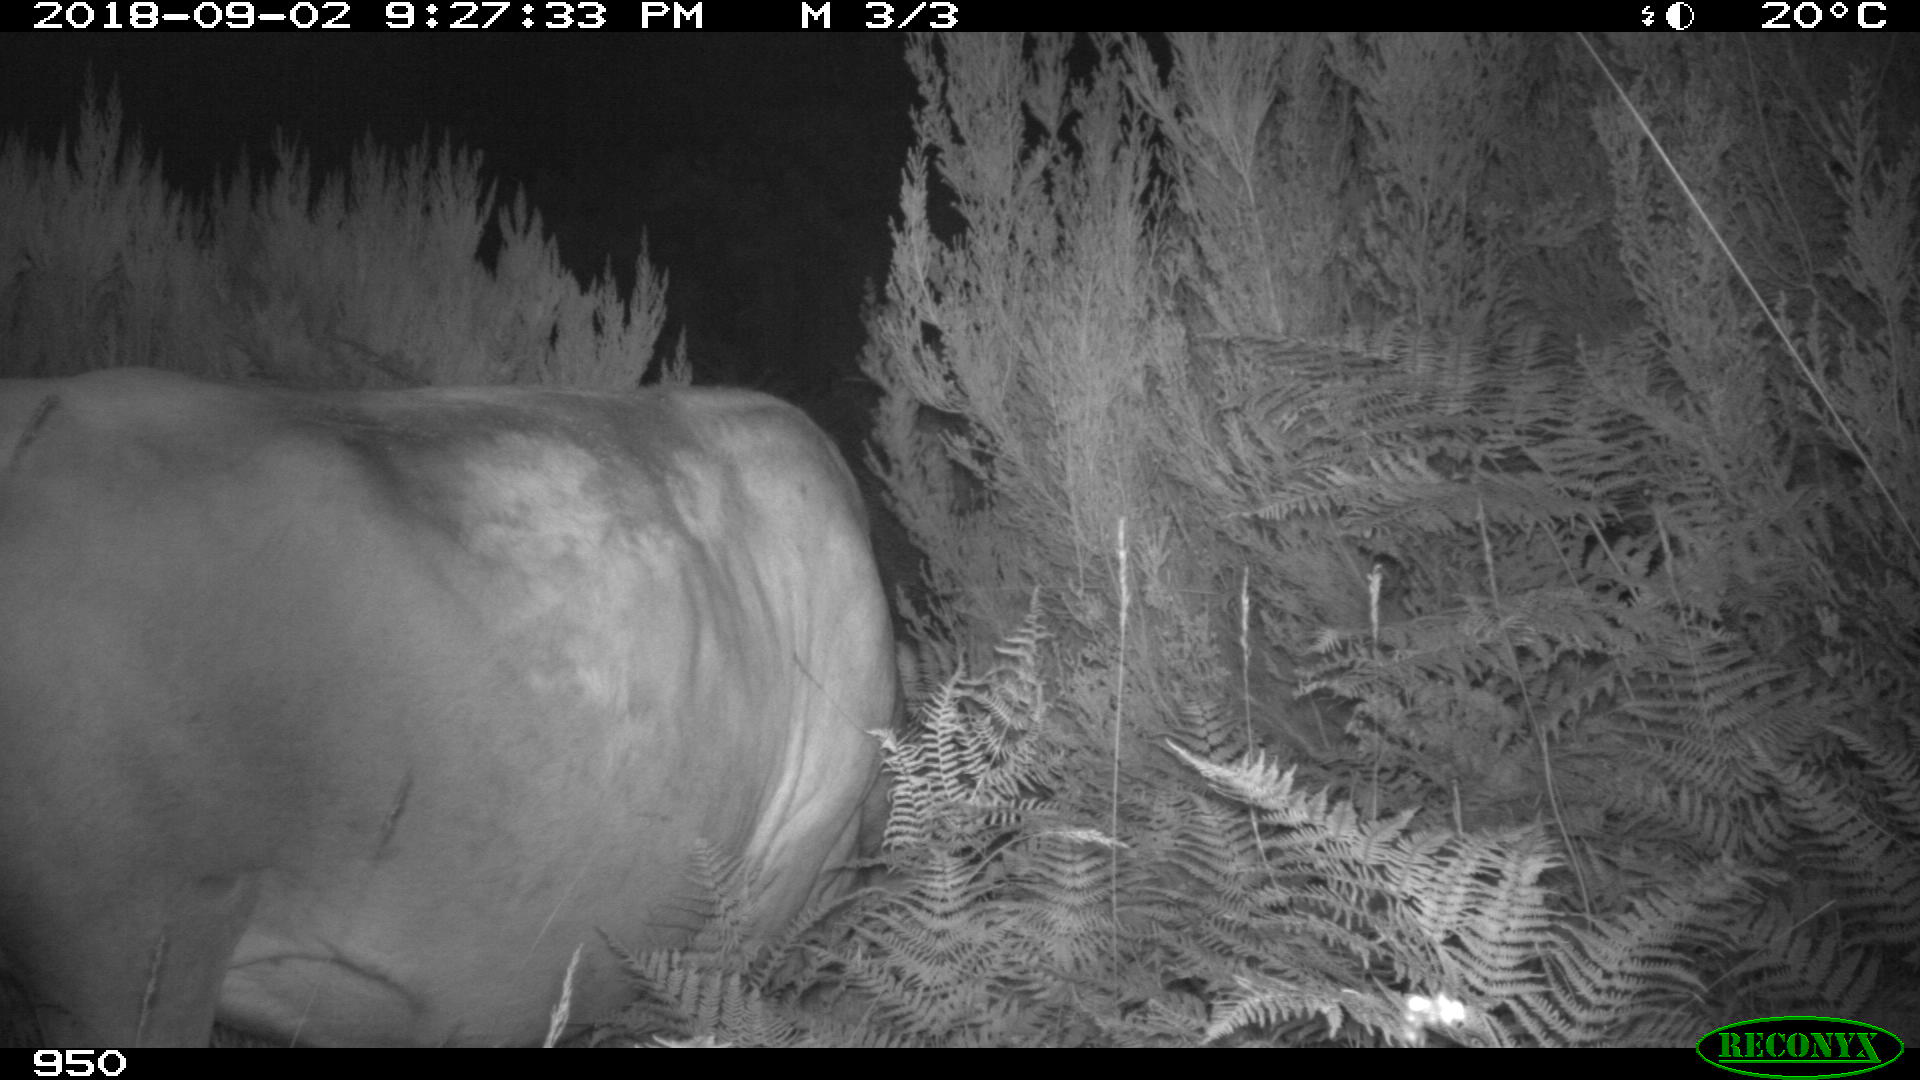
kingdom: Animalia
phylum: Chordata
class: Mammalia
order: Artiodactyla
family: Bovidae
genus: Bos
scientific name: Bos taurus
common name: Domesticated cattle
